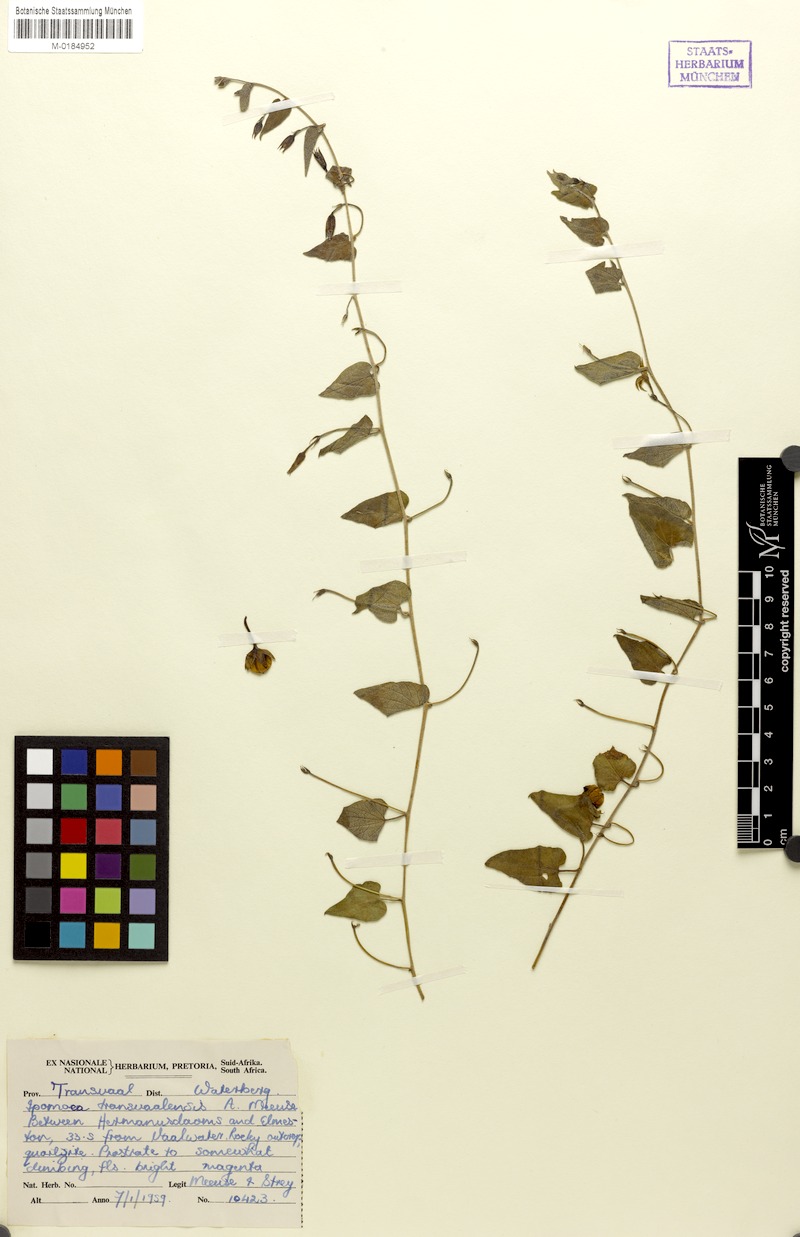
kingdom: Plantae
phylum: Tracheophyta
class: Magnoliopsida
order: Solanales
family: Convolvulaceae
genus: Ipomoea
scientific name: Ipomoea transvaalensis
